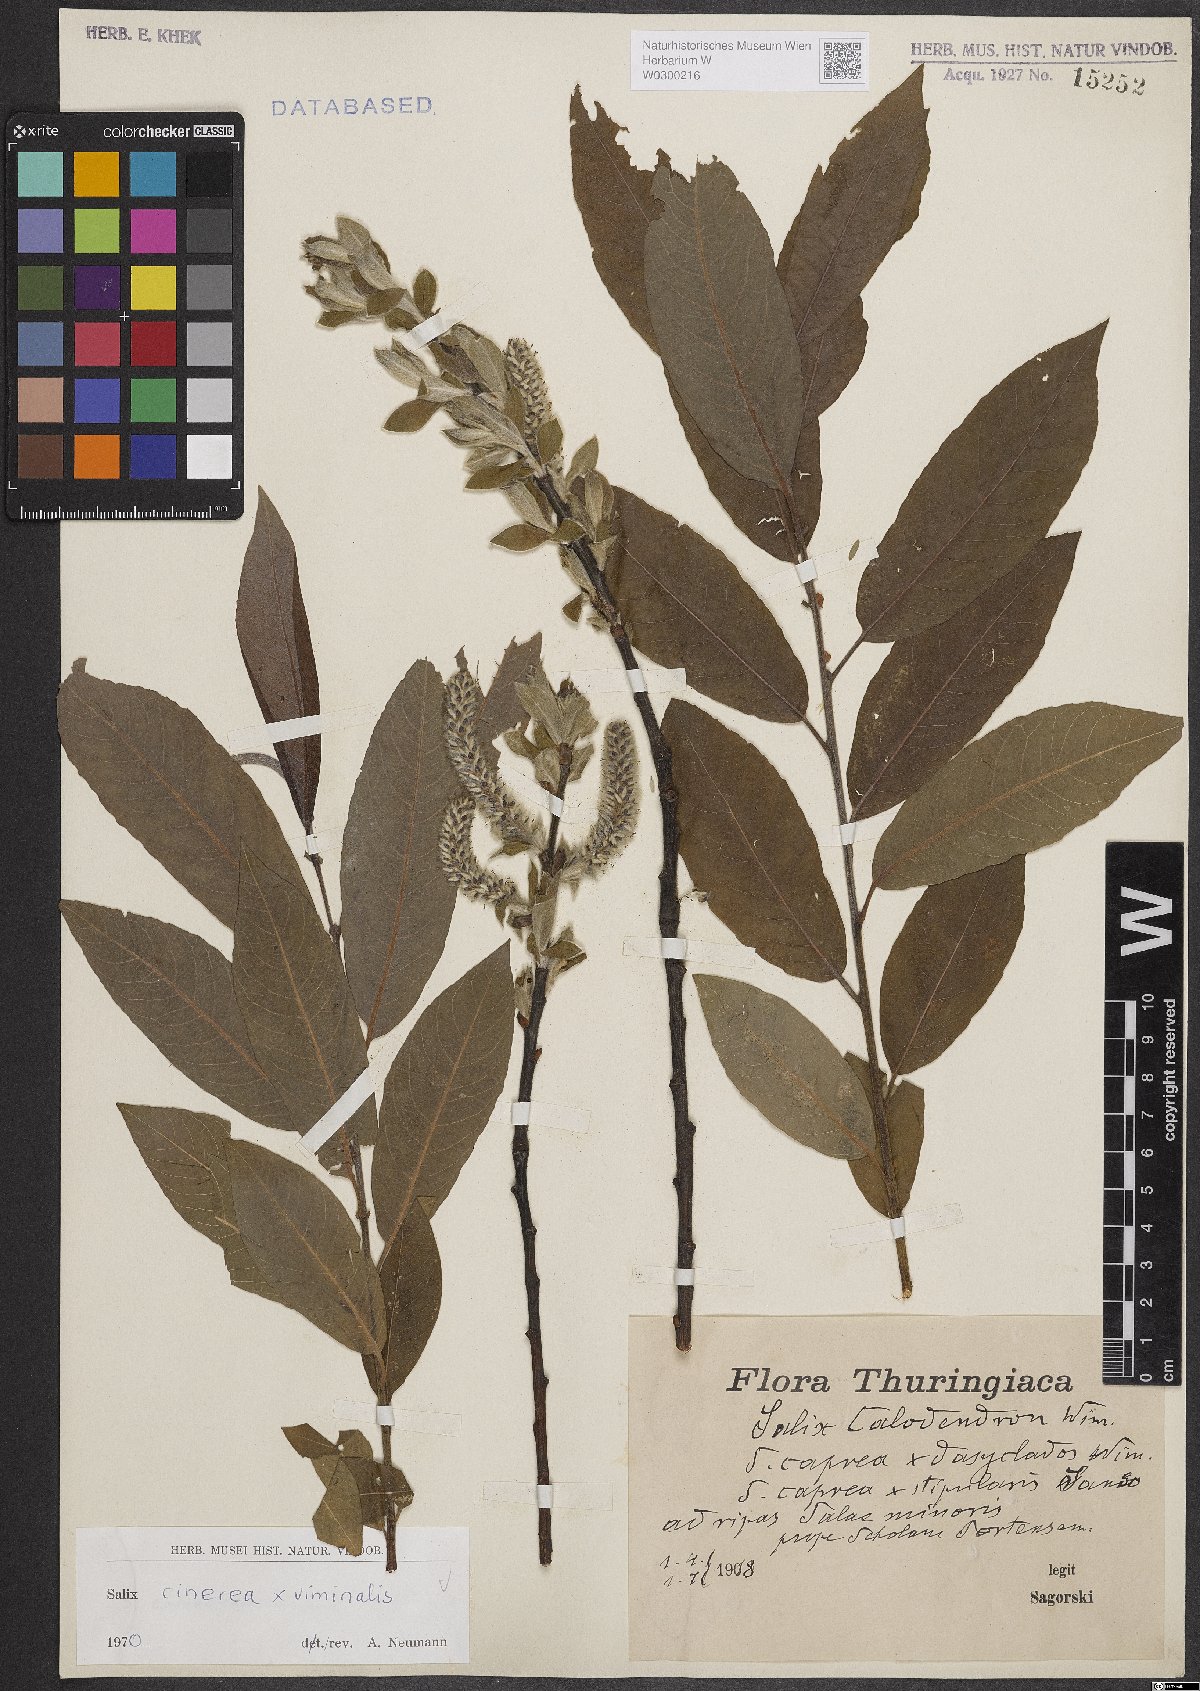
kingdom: Plantae
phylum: Tracheophyta
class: Magnoliopsida
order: Malpighiales
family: Salicaceae
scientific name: Salicaceae
